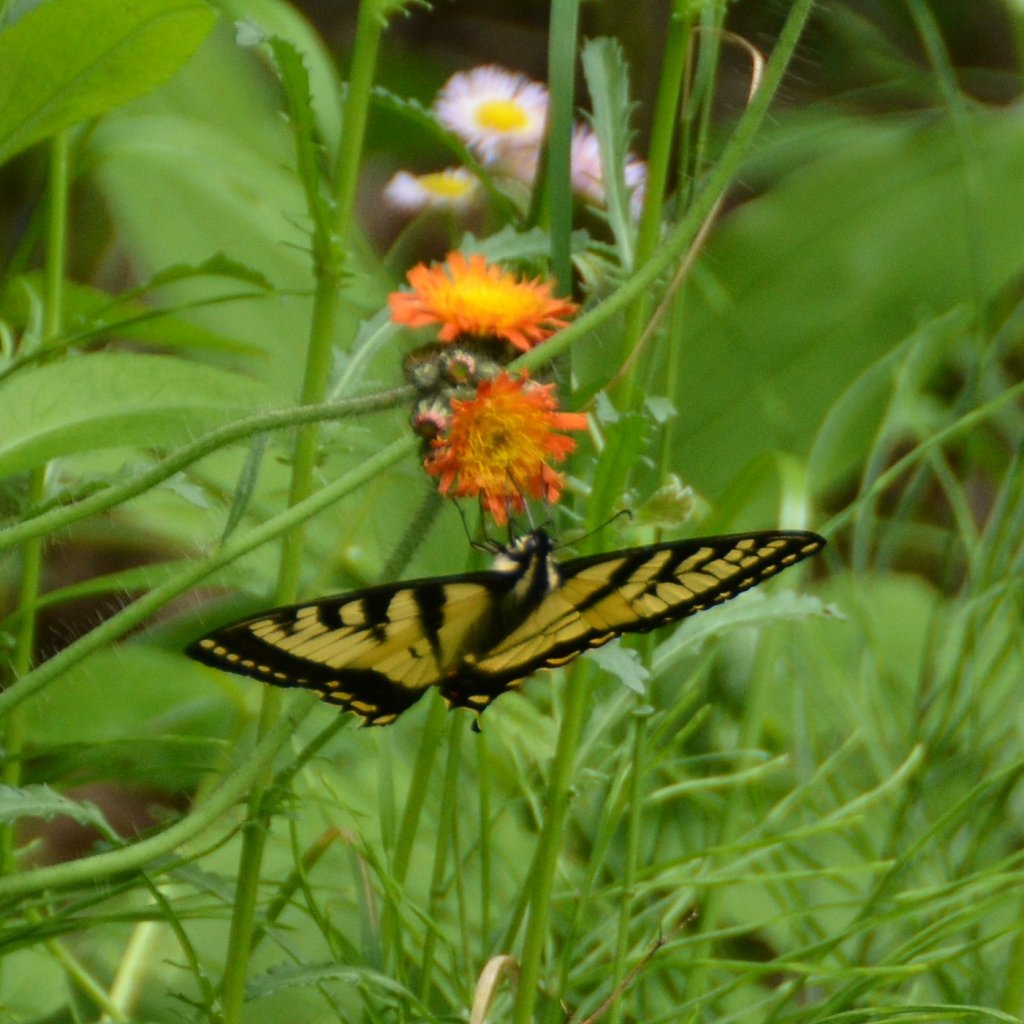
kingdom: Animalia
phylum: Arthropoda
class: Insecta
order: Lepidoptera
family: Papilionidae
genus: Pterourus
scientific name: Pterourus canadensis
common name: Canadian Tiger Swallowtail
